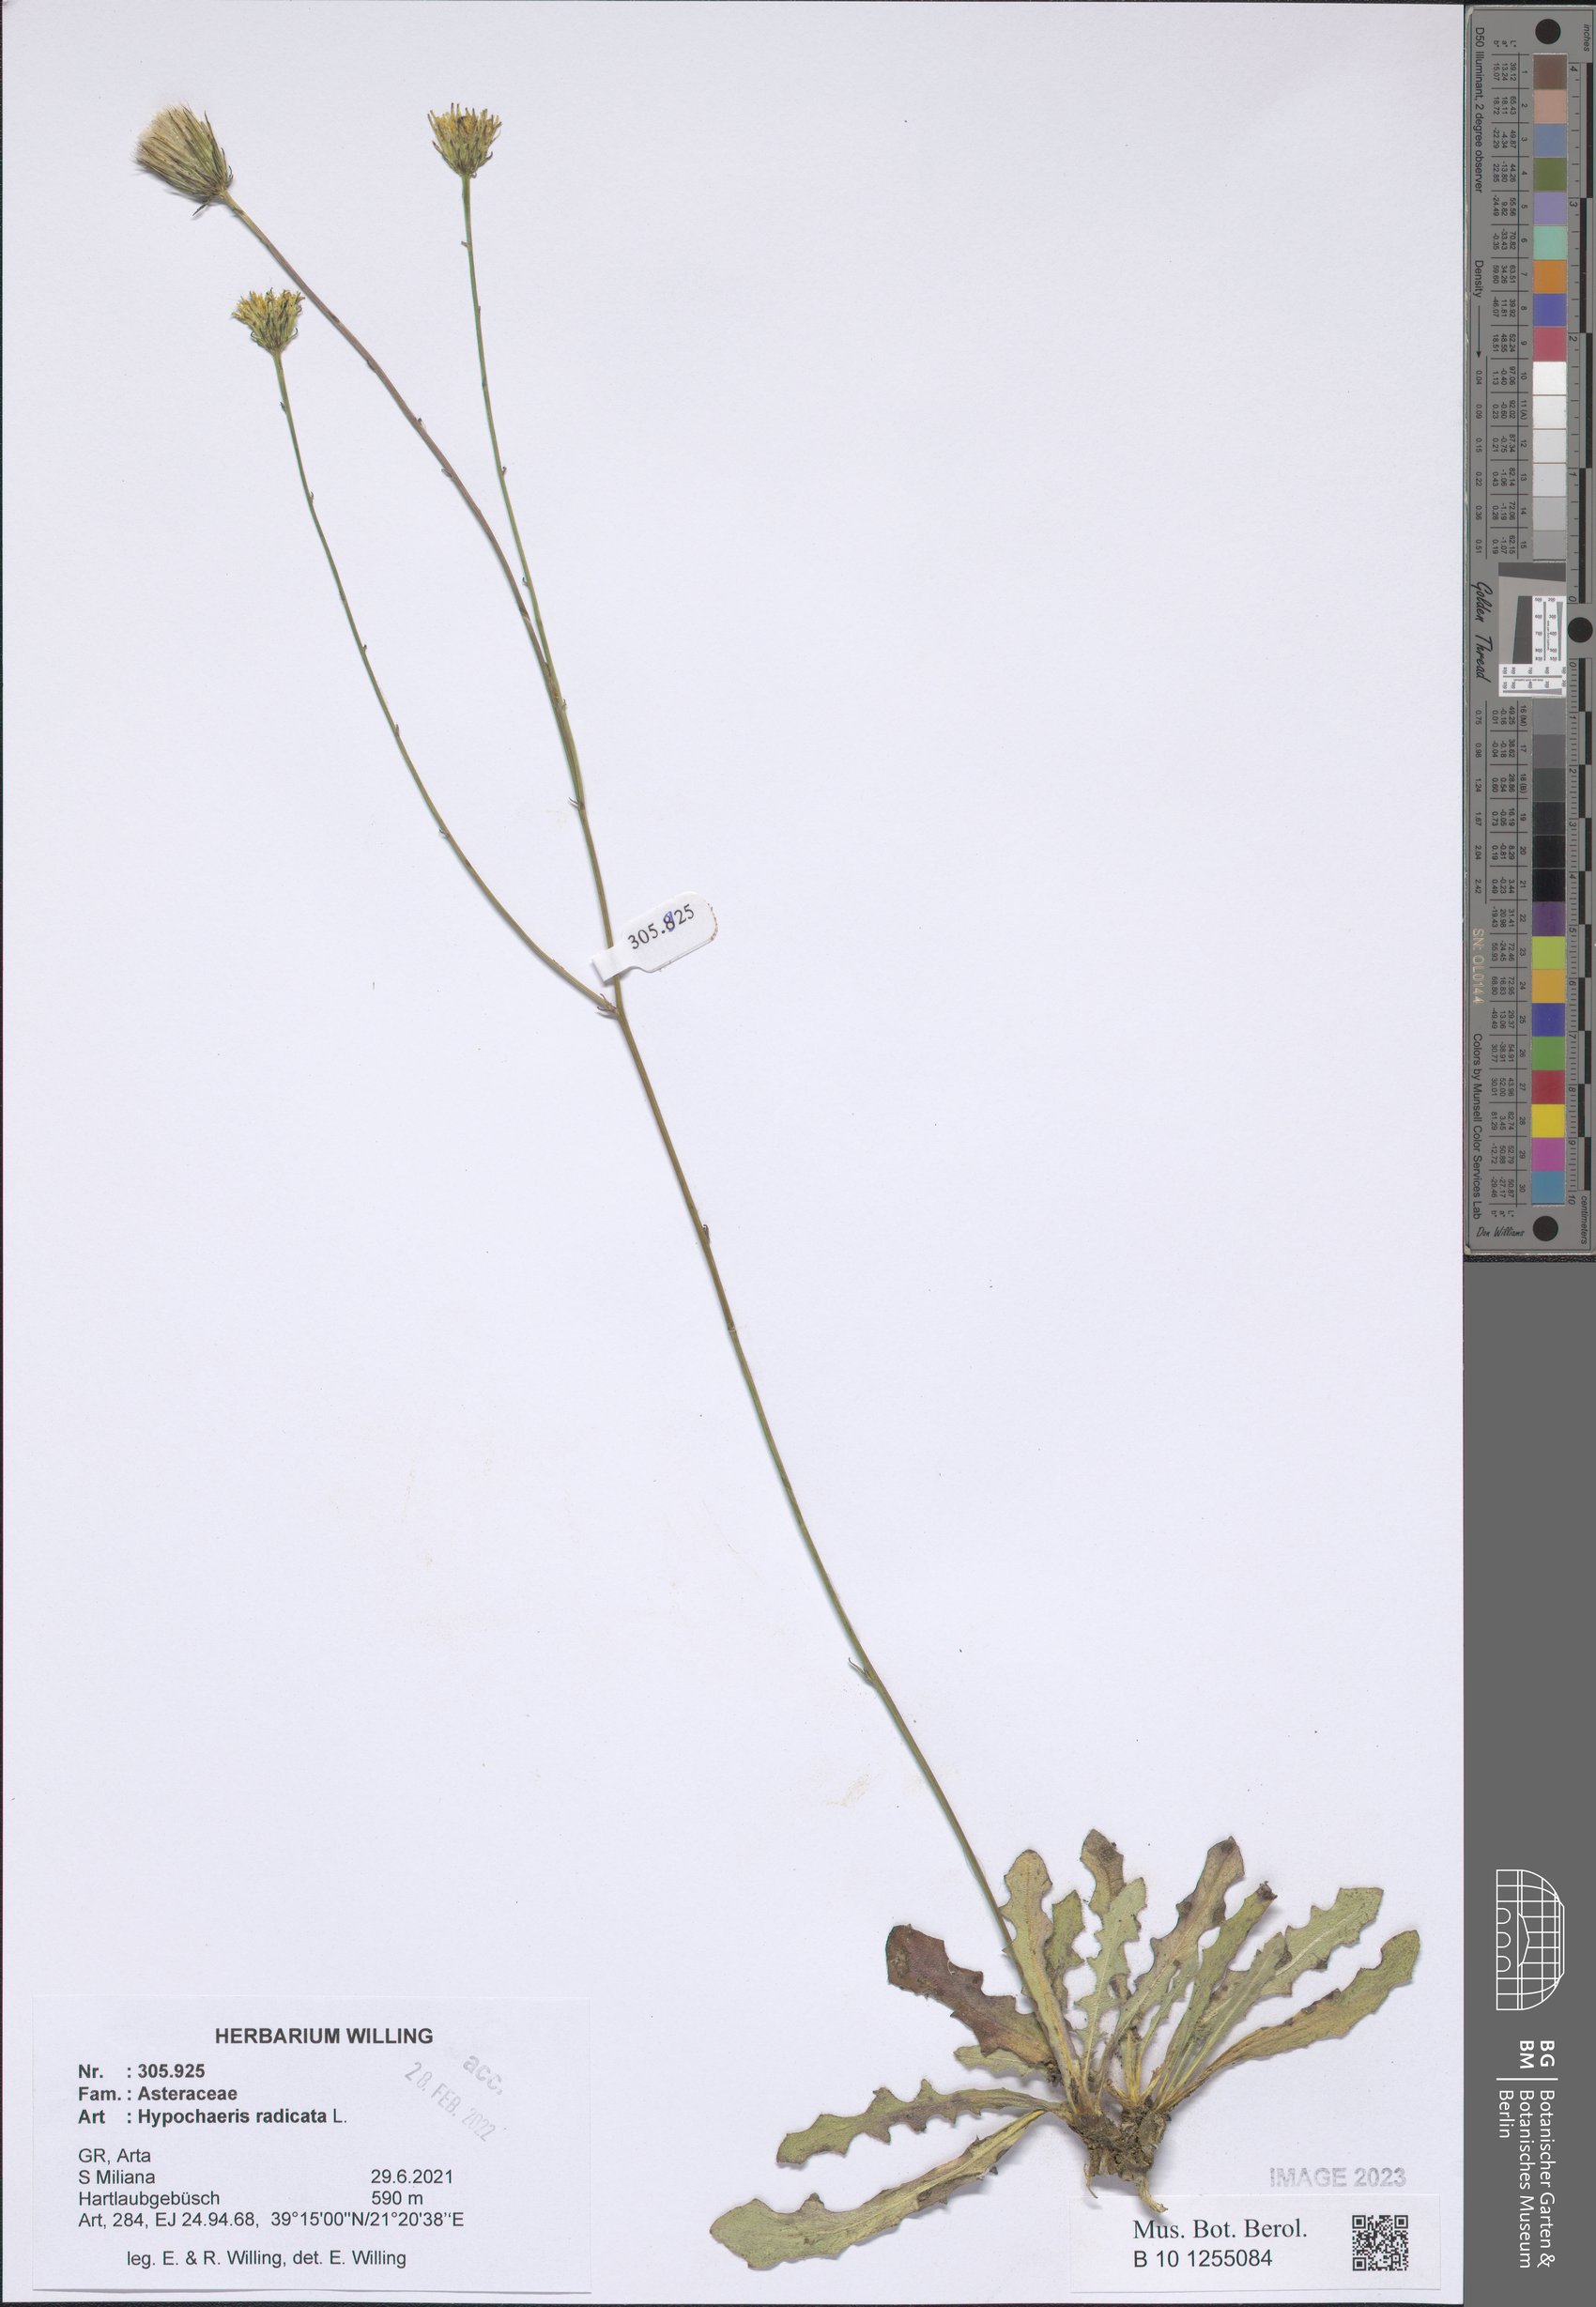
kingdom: Plantae
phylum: Tracheophyta
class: Magnoliopsida
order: Asterales
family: Asteraceae
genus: Hypochaeris
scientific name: Hypochaeris radicata
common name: Flatweed
